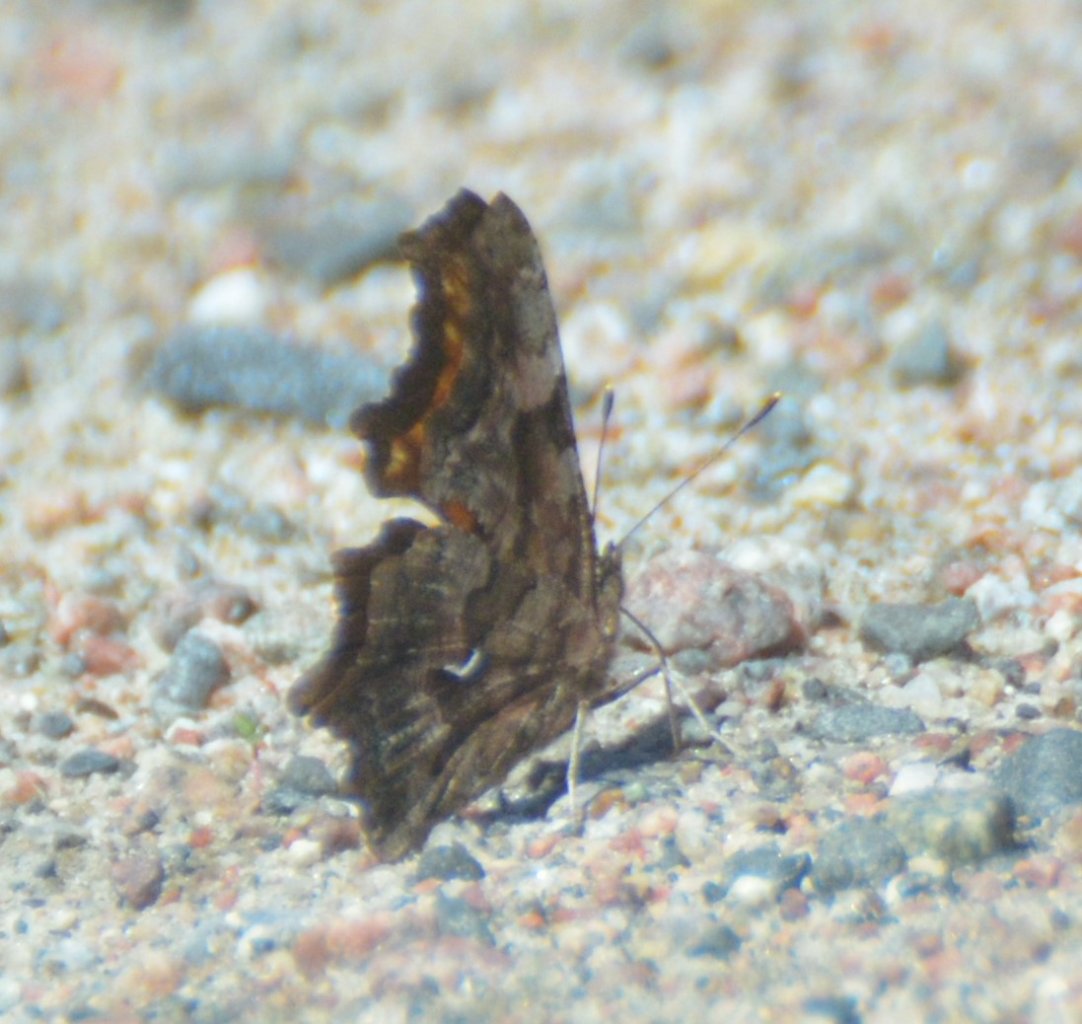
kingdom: Animalia
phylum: Arthropoda
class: Insecta
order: Lepidoptera
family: Nymphalidae
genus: Polygonia
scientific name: Polygonia faunus
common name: Green Comma
